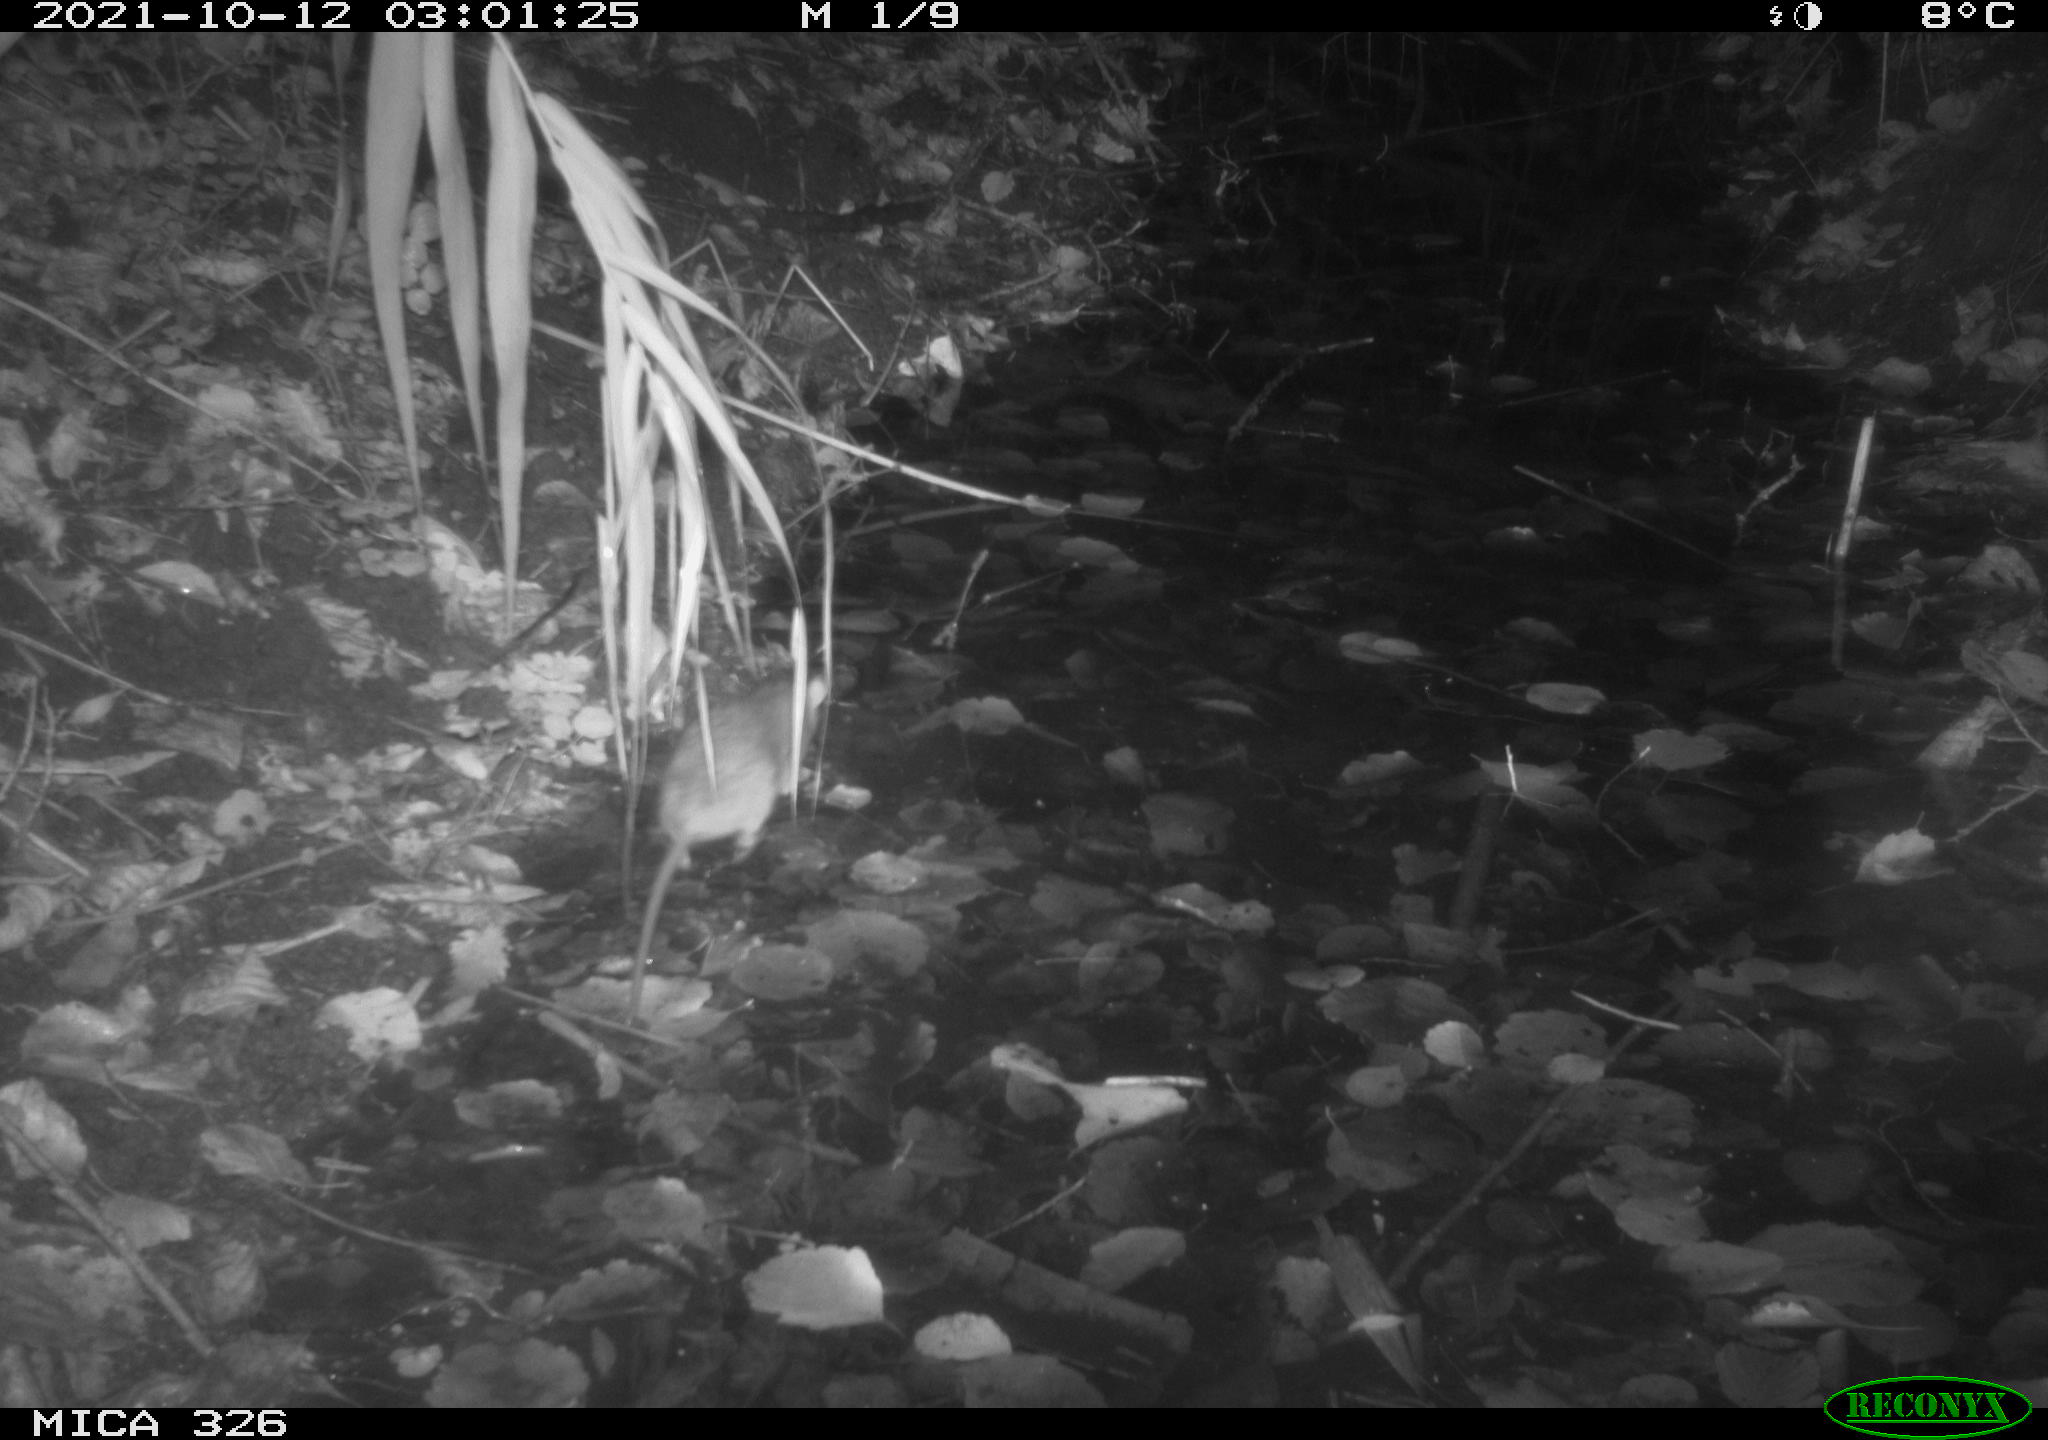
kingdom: Animalia
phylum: Chordata
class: Mammalia
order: Rodentia
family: Muridae
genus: Rattus
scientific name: Rattus norvegicus
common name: Brown rat
